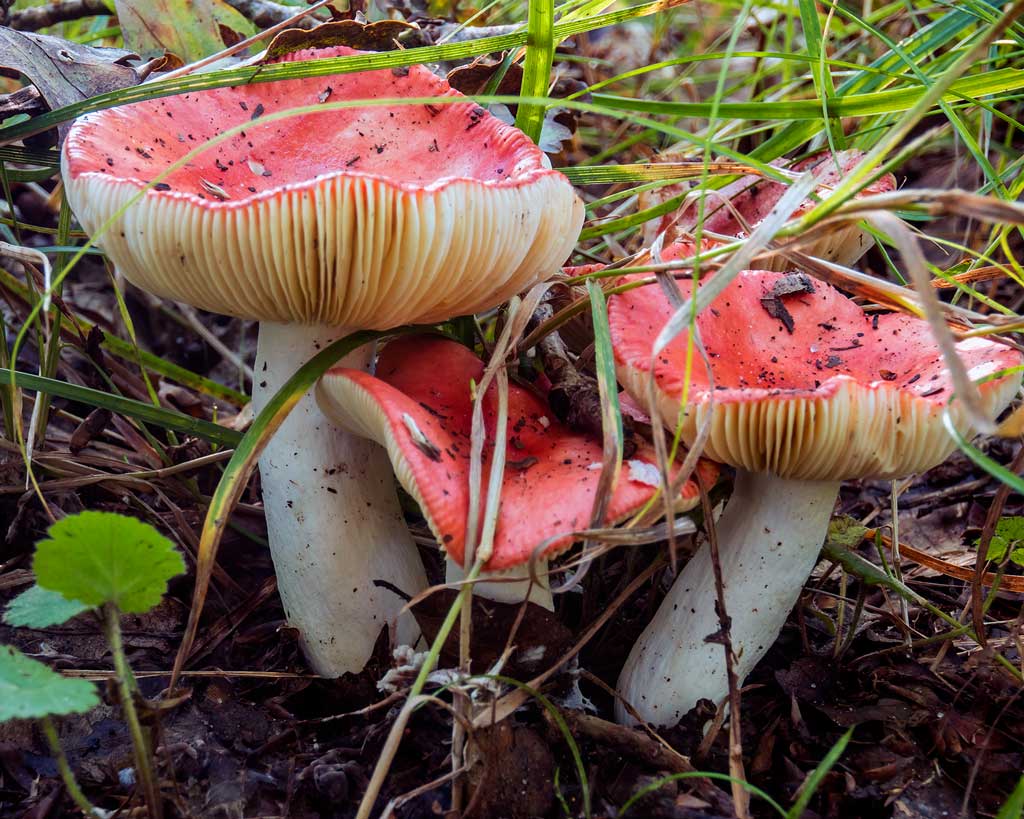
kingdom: Fungi
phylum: Basidiomycota
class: Agaricomycetes
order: Russulales
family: Russulaceae
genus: Russula
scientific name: Russula pseudointegra
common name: cinnoberrød skørhat
